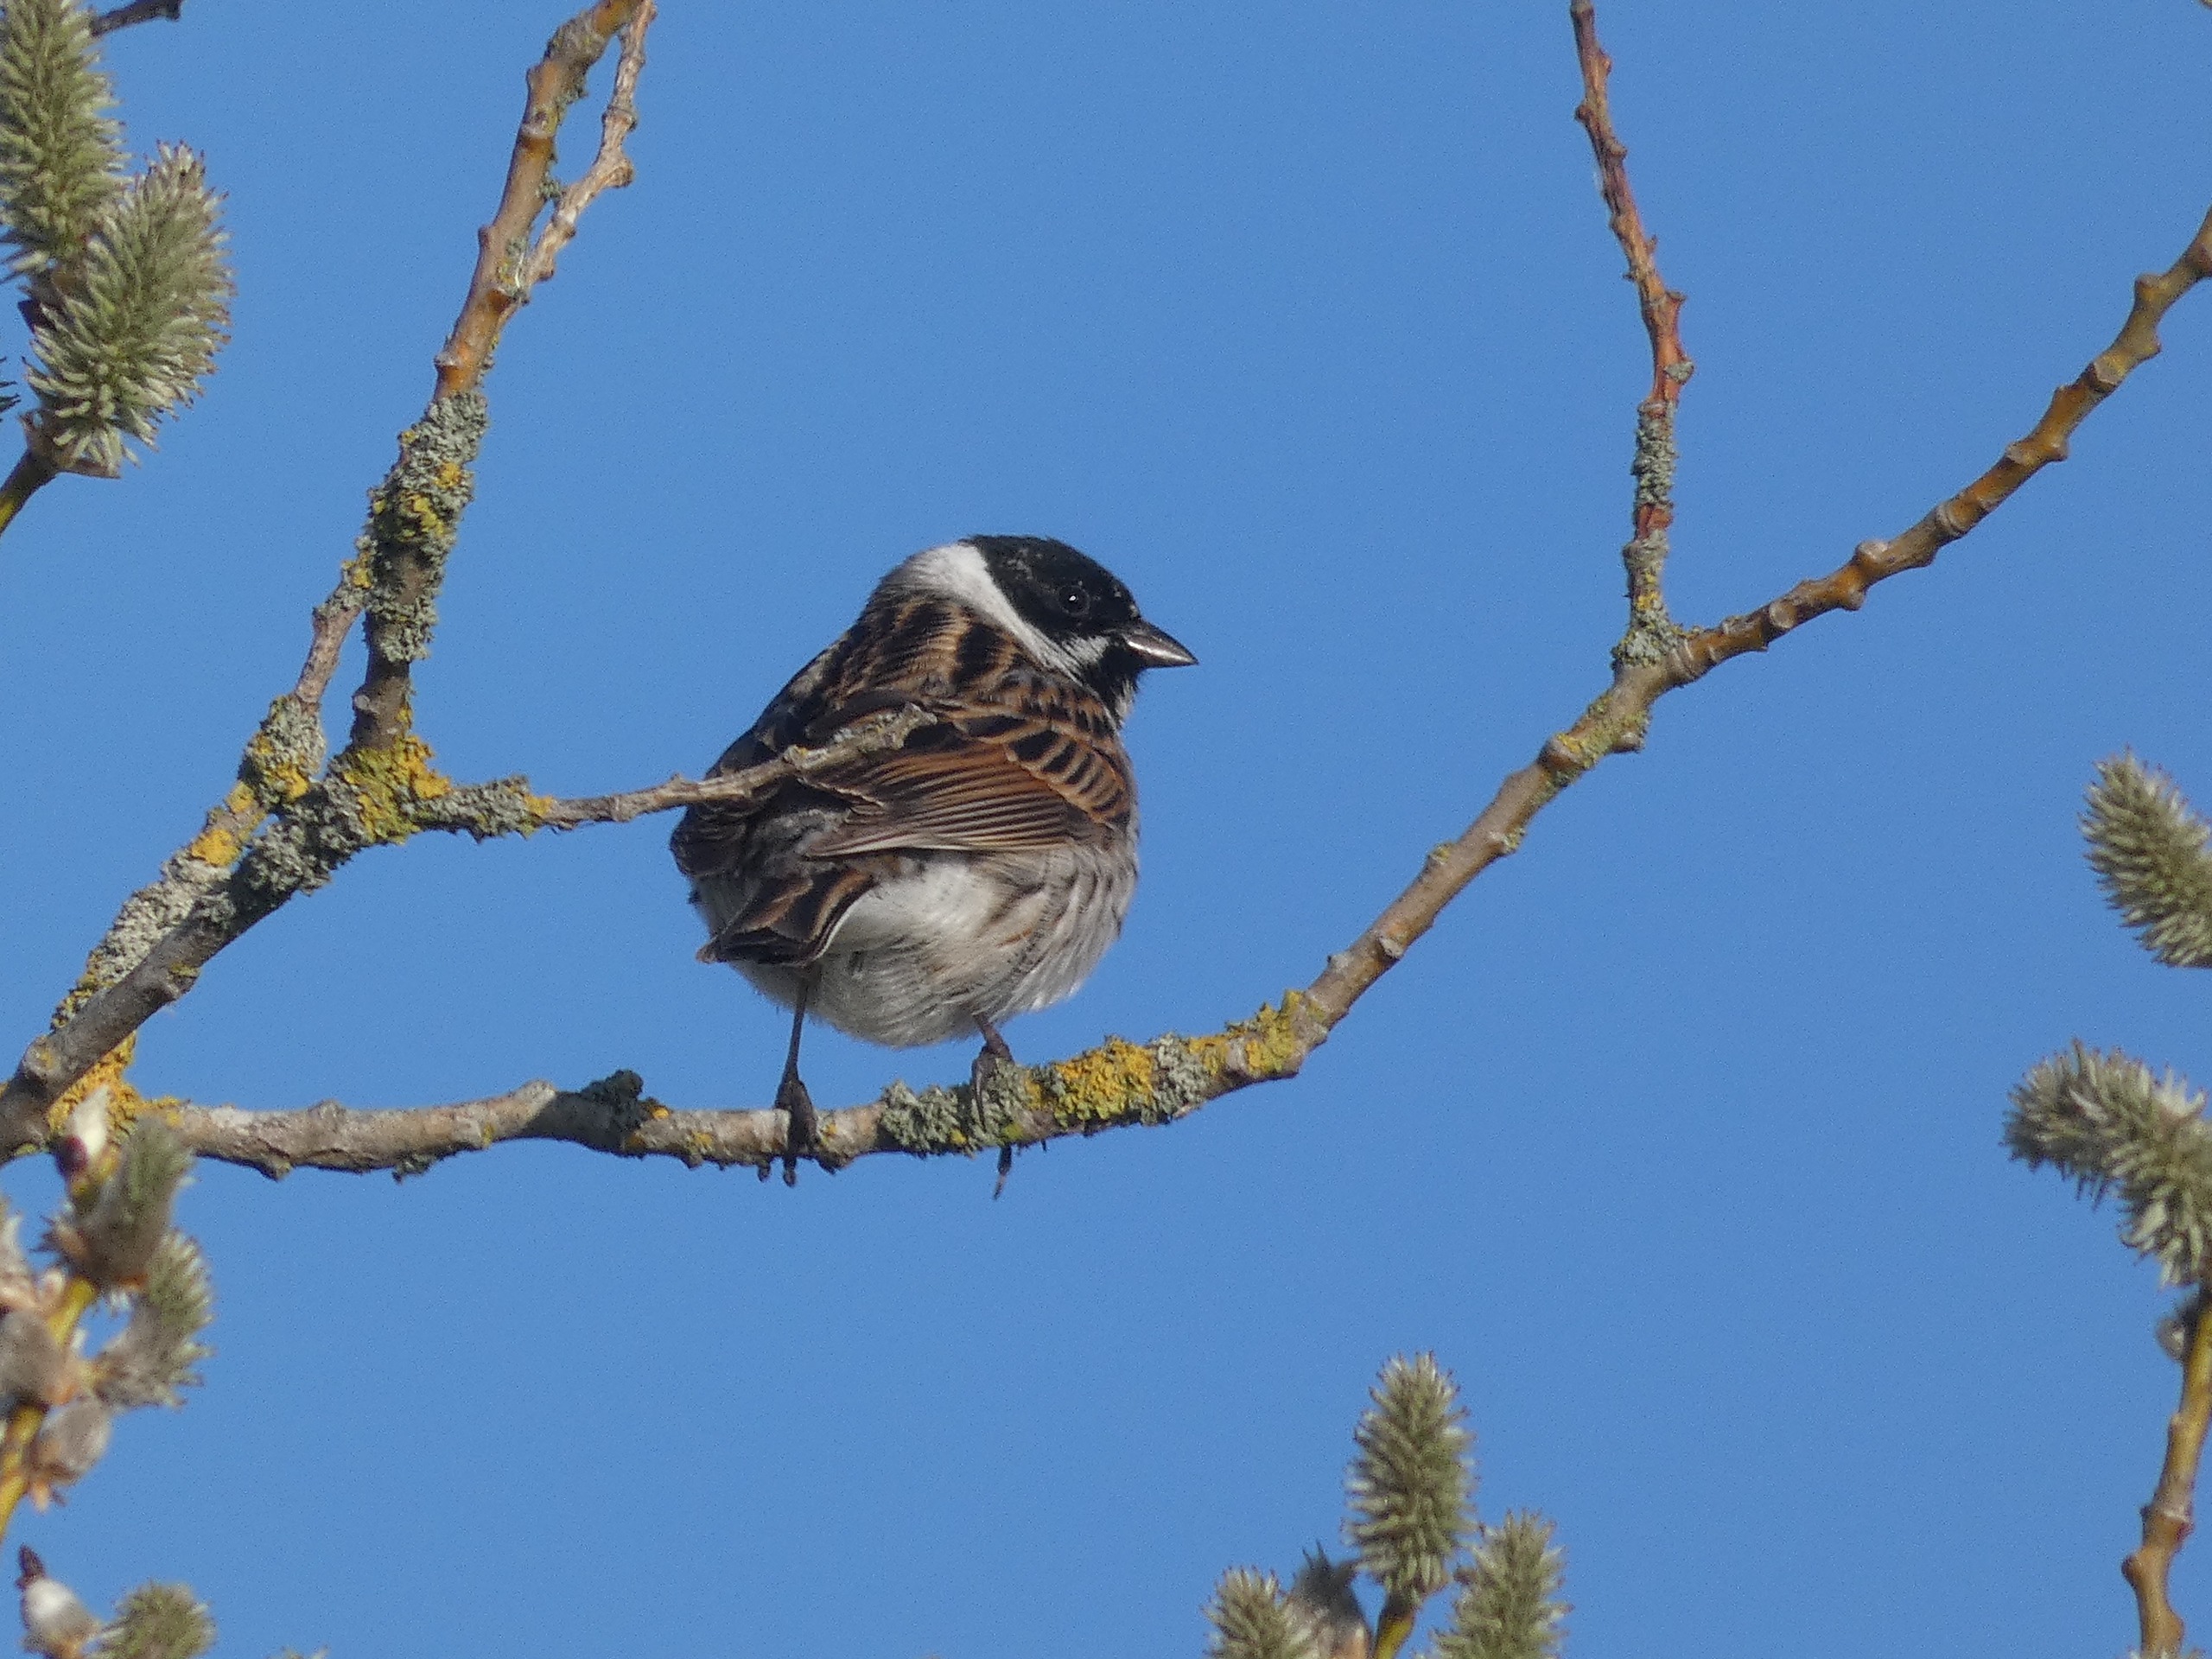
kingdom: Animalia
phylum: Chordata
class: Aves
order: Passeriformes
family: Emberizidae
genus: Emberiza
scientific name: Emberiza schoeniclus
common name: Rørspurv
